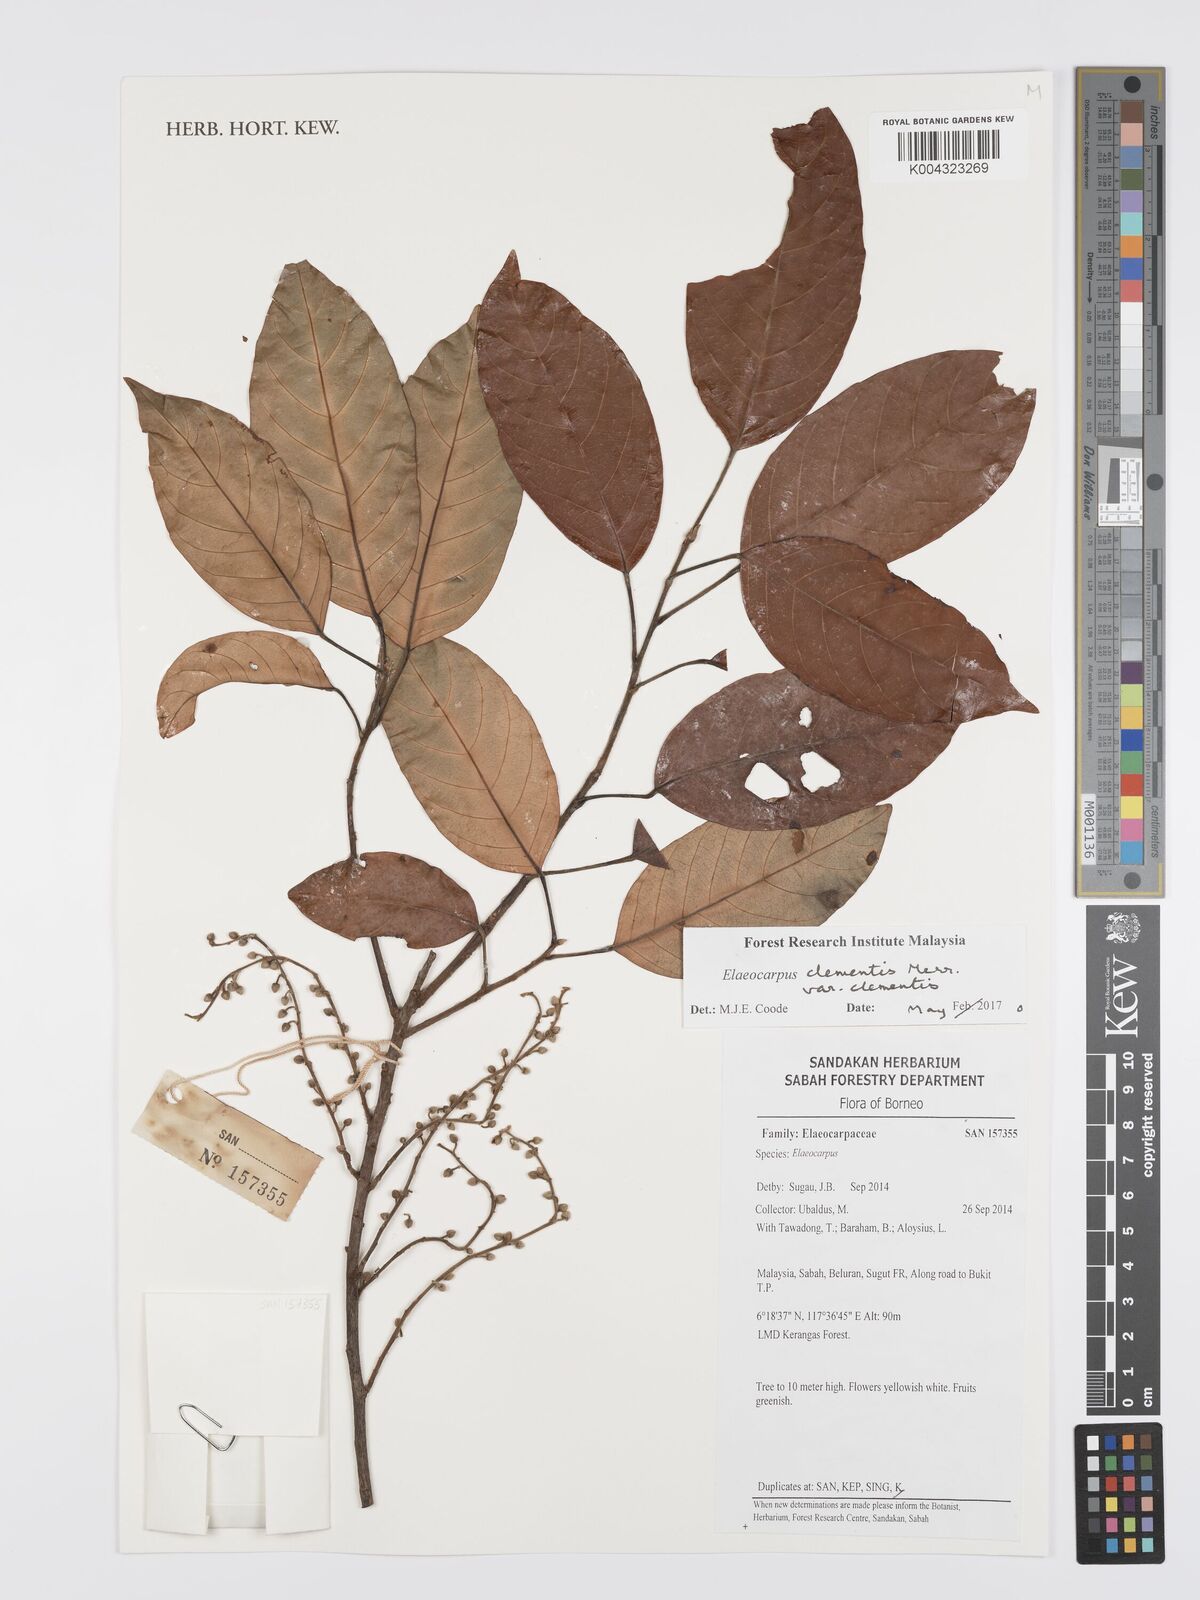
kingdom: Plantae
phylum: Tracheophyta
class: Magnoliopsida
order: Oxalidales
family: Elaeocarpaceae
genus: Elaeocarpus
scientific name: Elaeocarpus clementis
